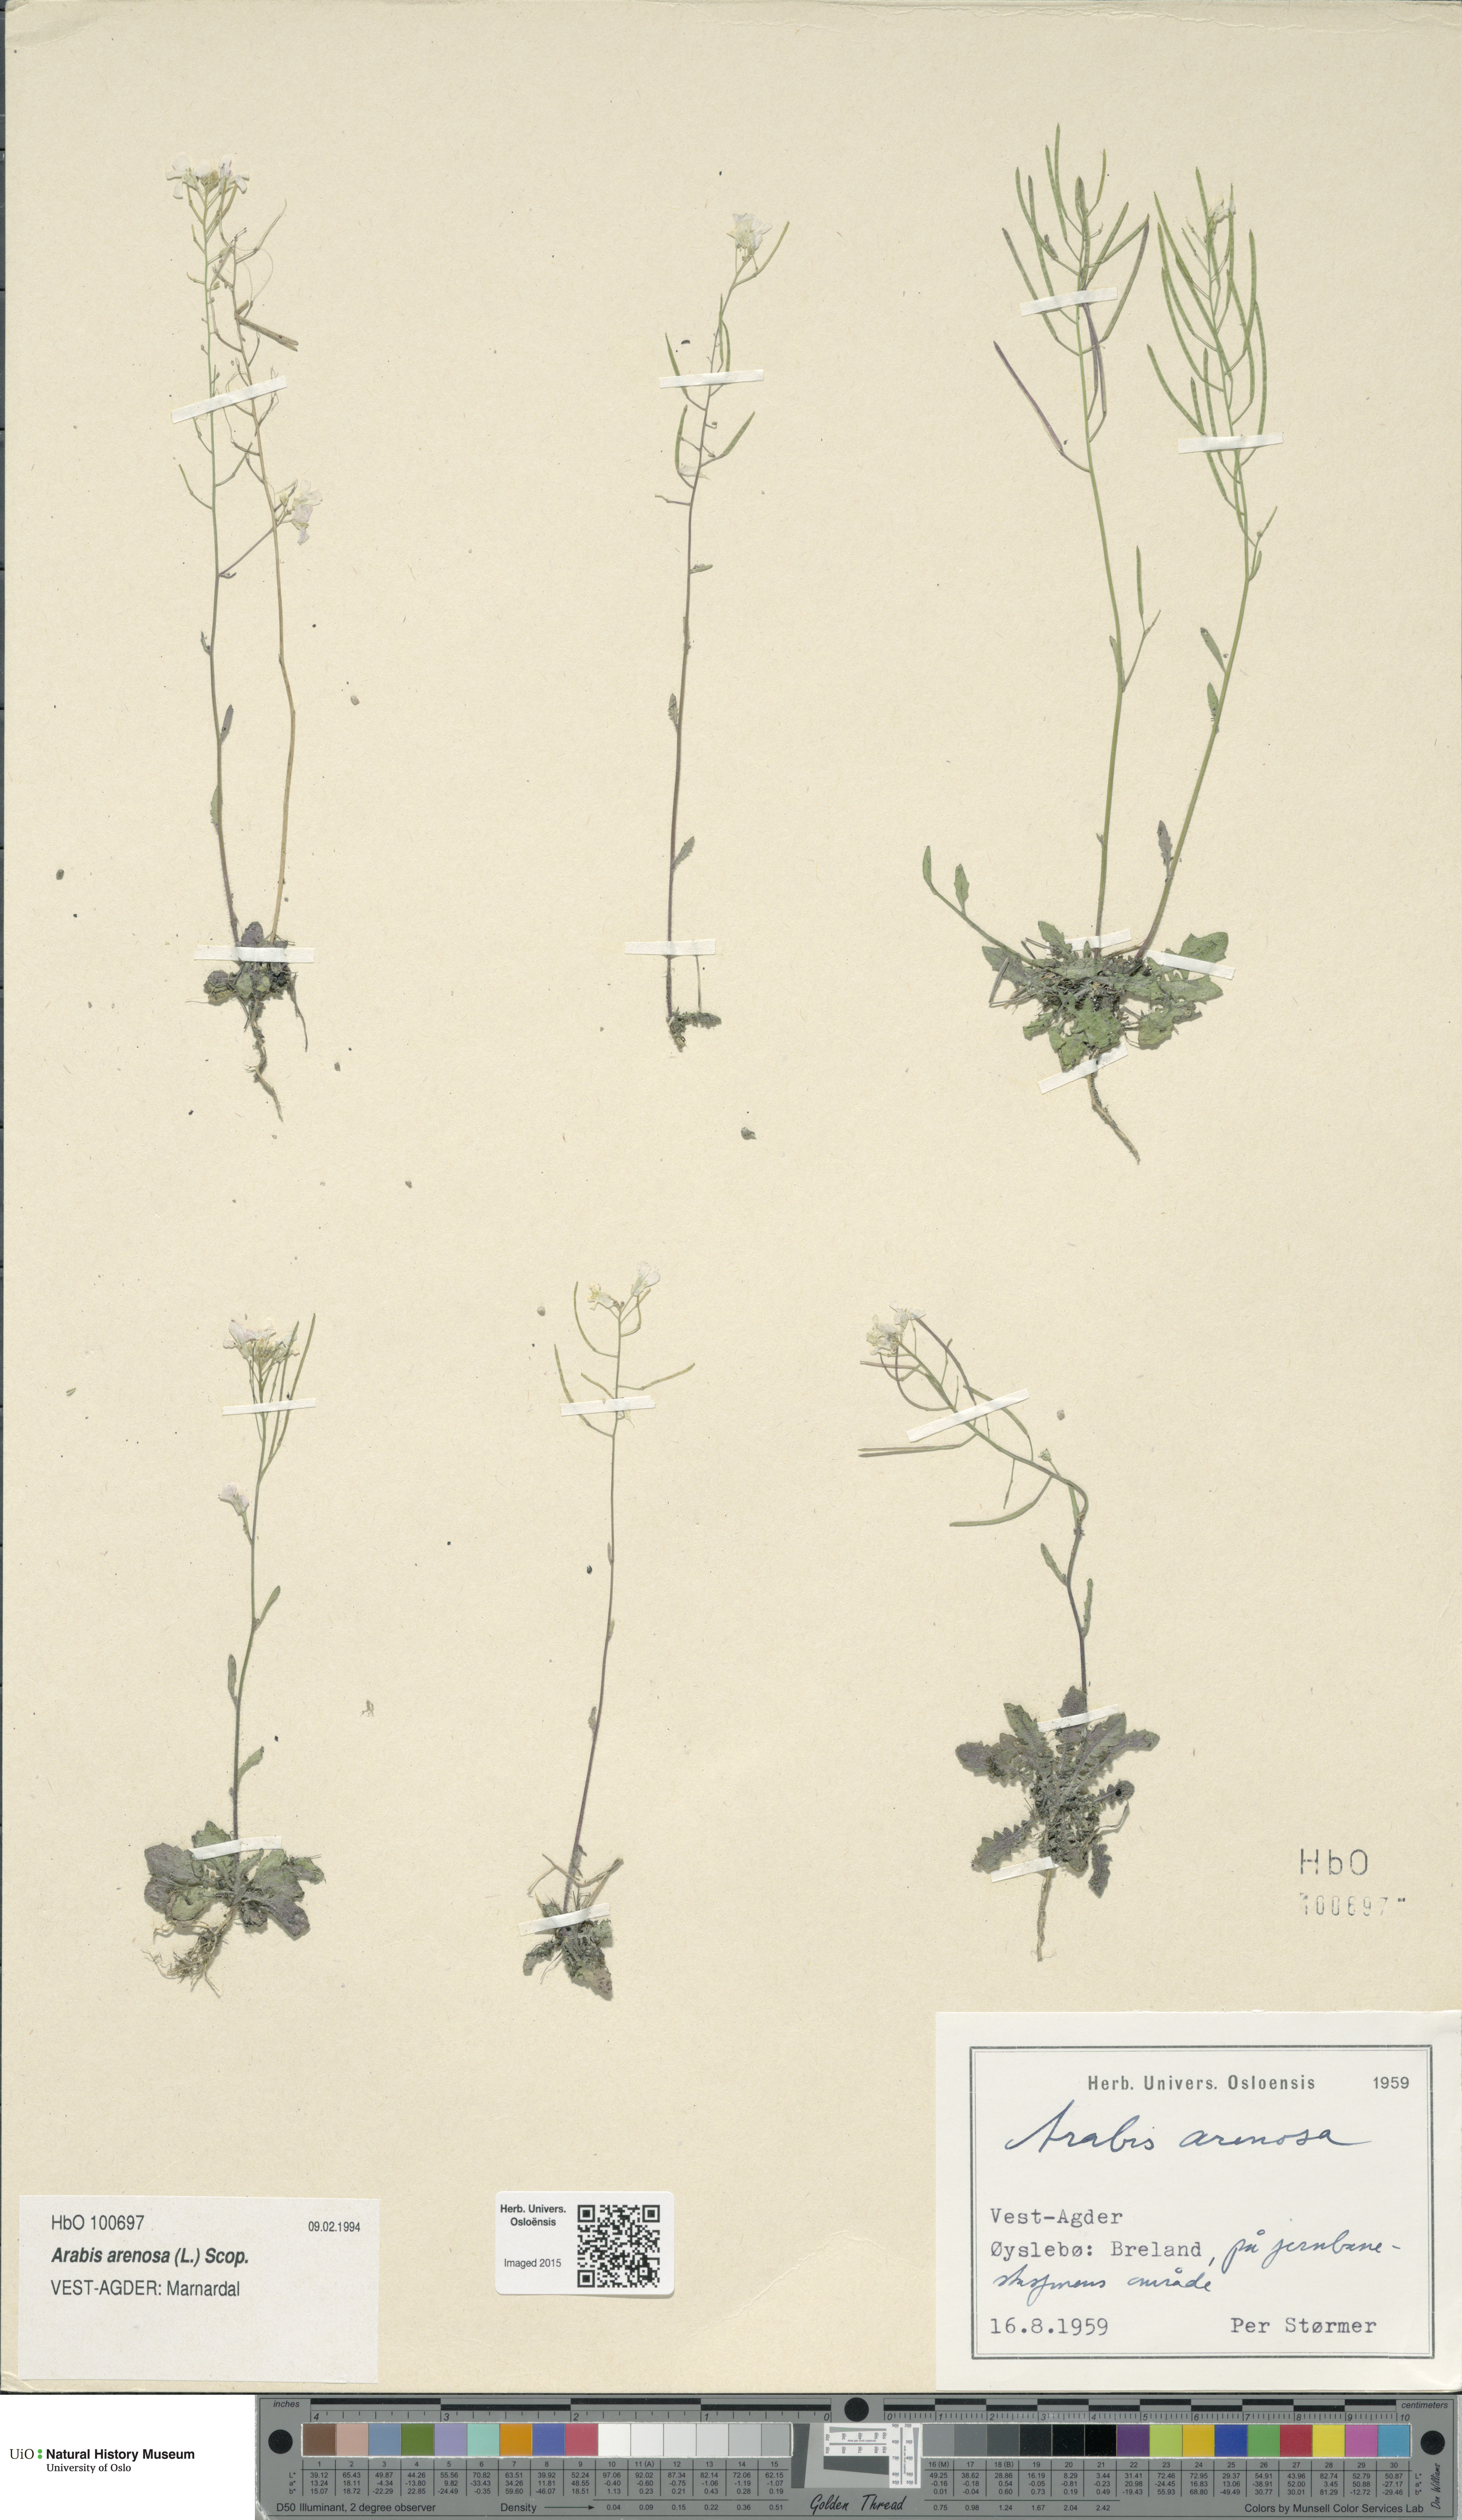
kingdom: Plantae
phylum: Tracheophyta
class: Magnoliopsida
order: Brassicales
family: Brassicaceae
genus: Arabidopsis
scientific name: Arabidopsis arenosa
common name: Sand rock-cress
